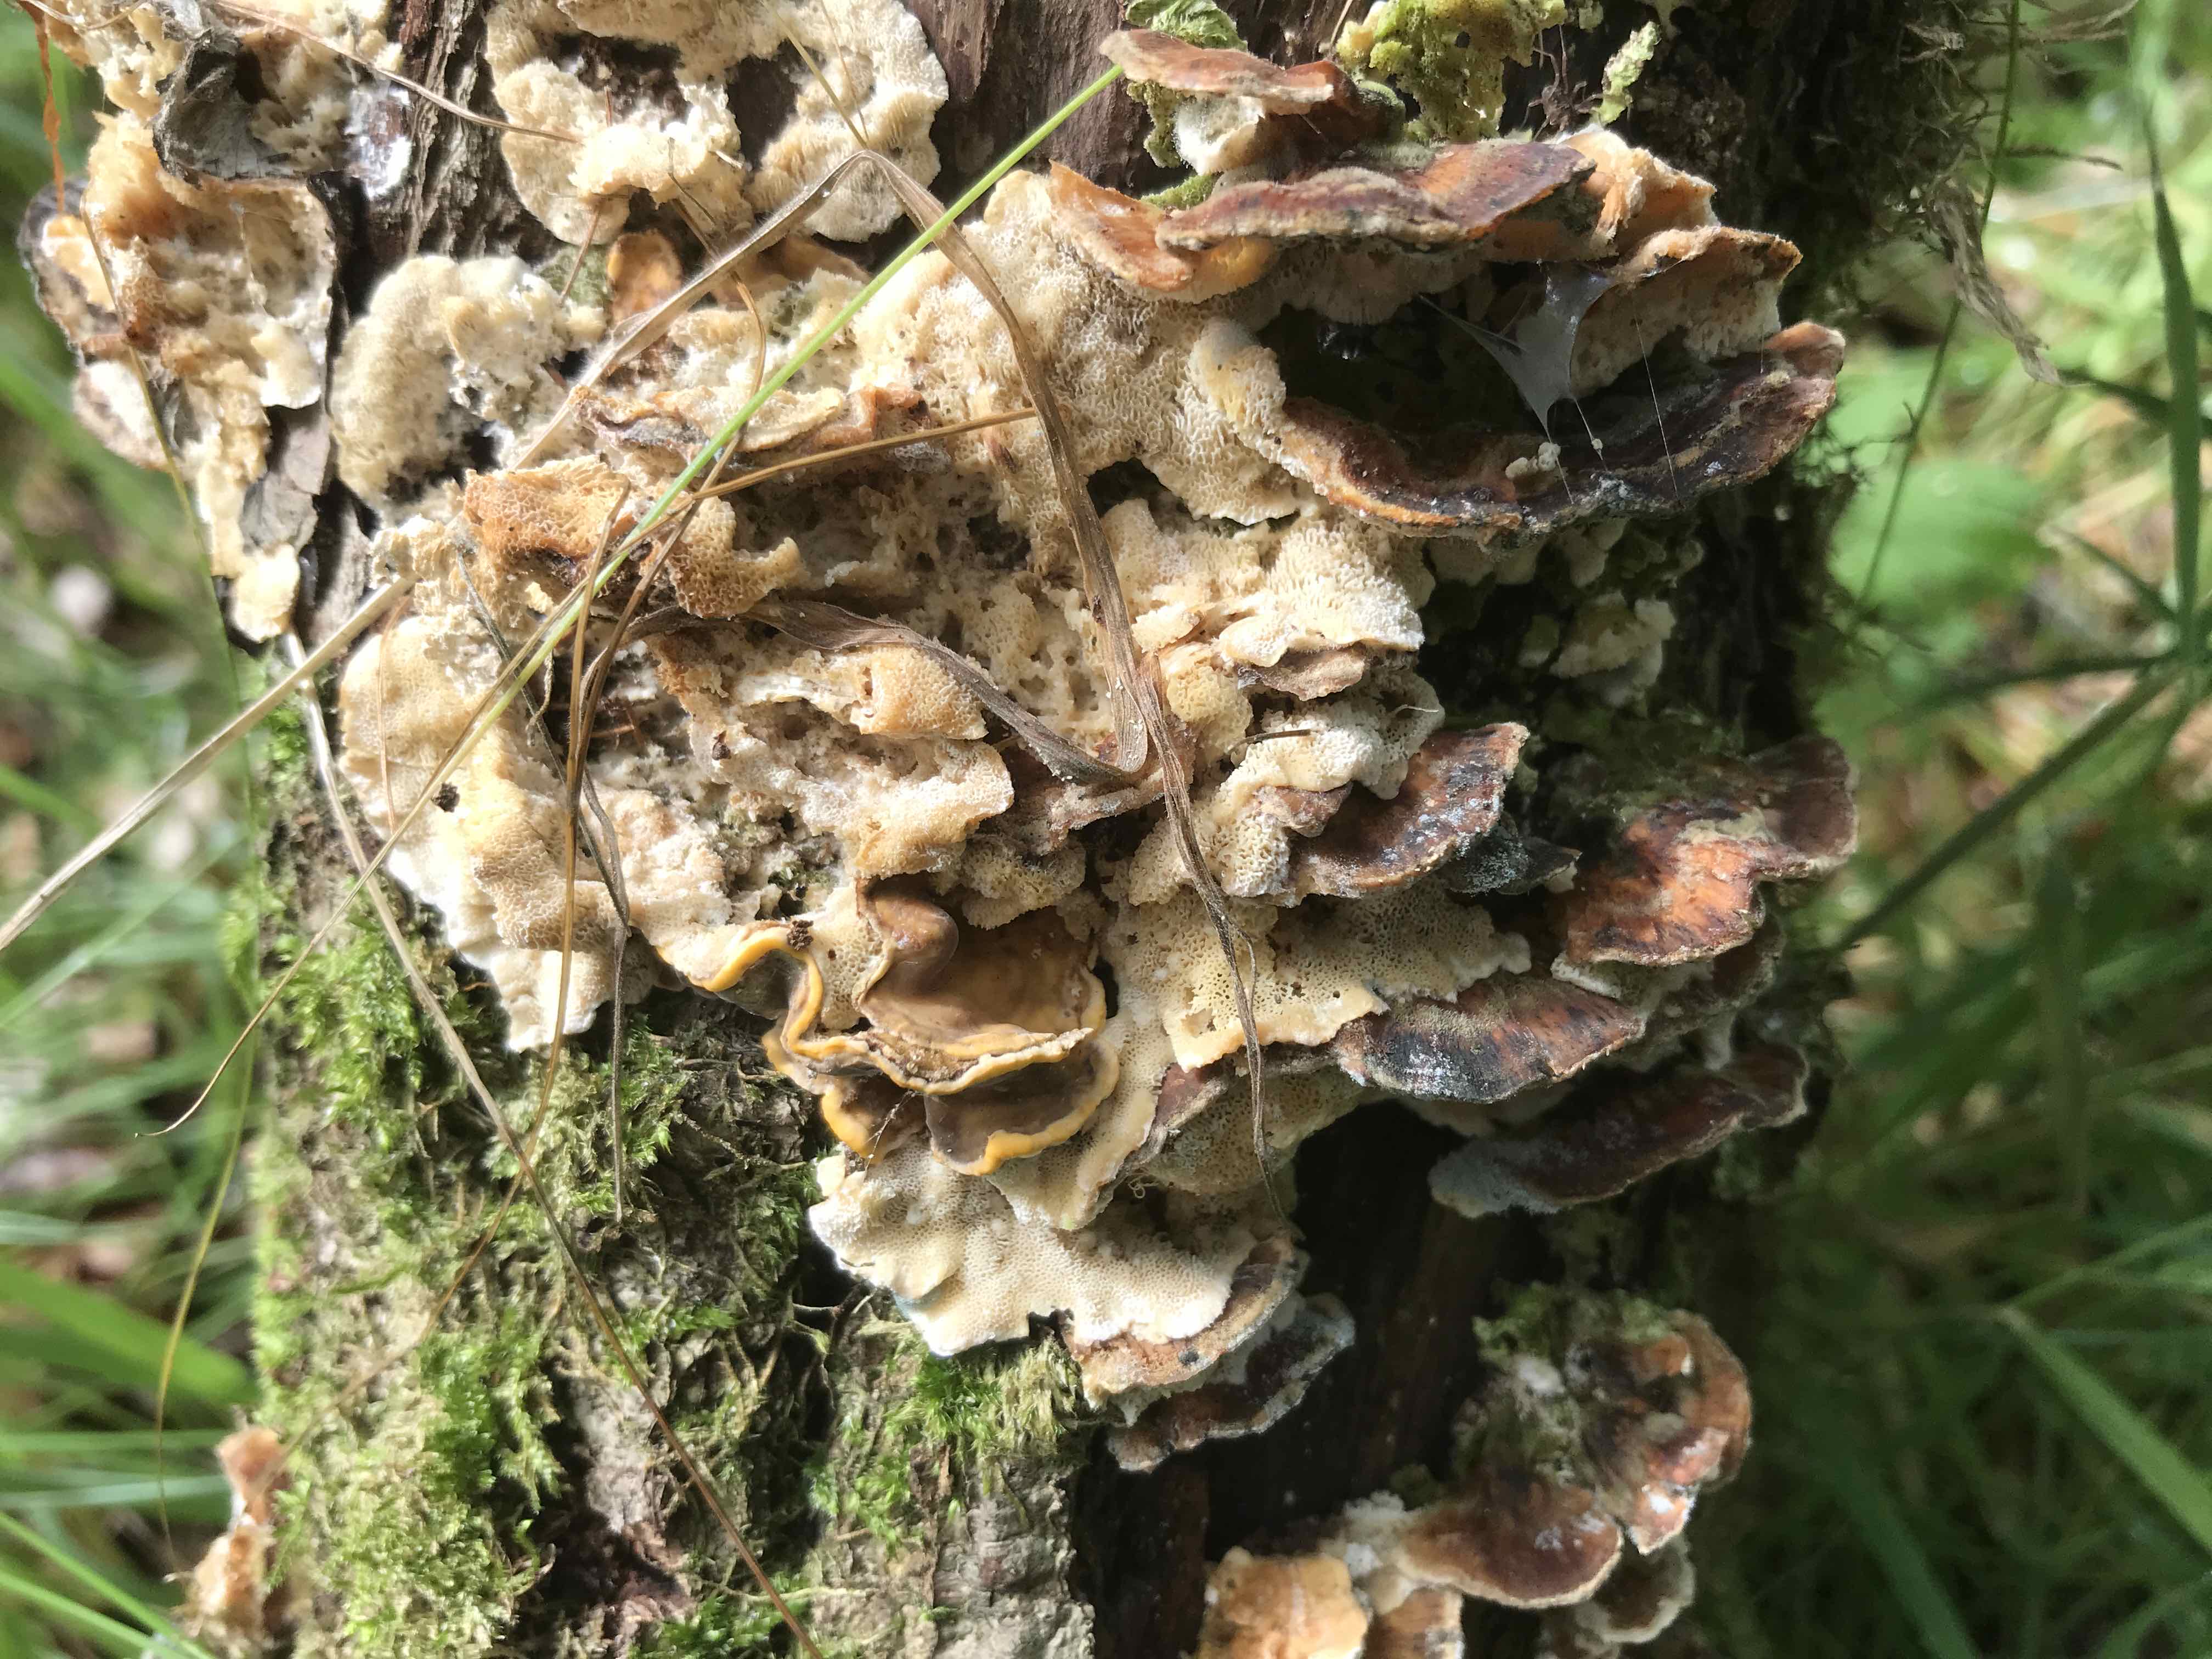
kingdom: Fungi
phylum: Basidiomycota
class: Agaricomycetes
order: Polyporales
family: Phanerochaetaceae
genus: Bjerkandera
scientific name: Bjerkandera fumosa
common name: grågul sodporesvamp
